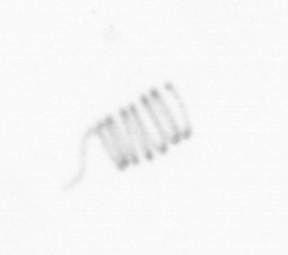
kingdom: Chromista
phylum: Ochrophyta
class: Bacillariophyceae
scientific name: Bacillariophyceae
